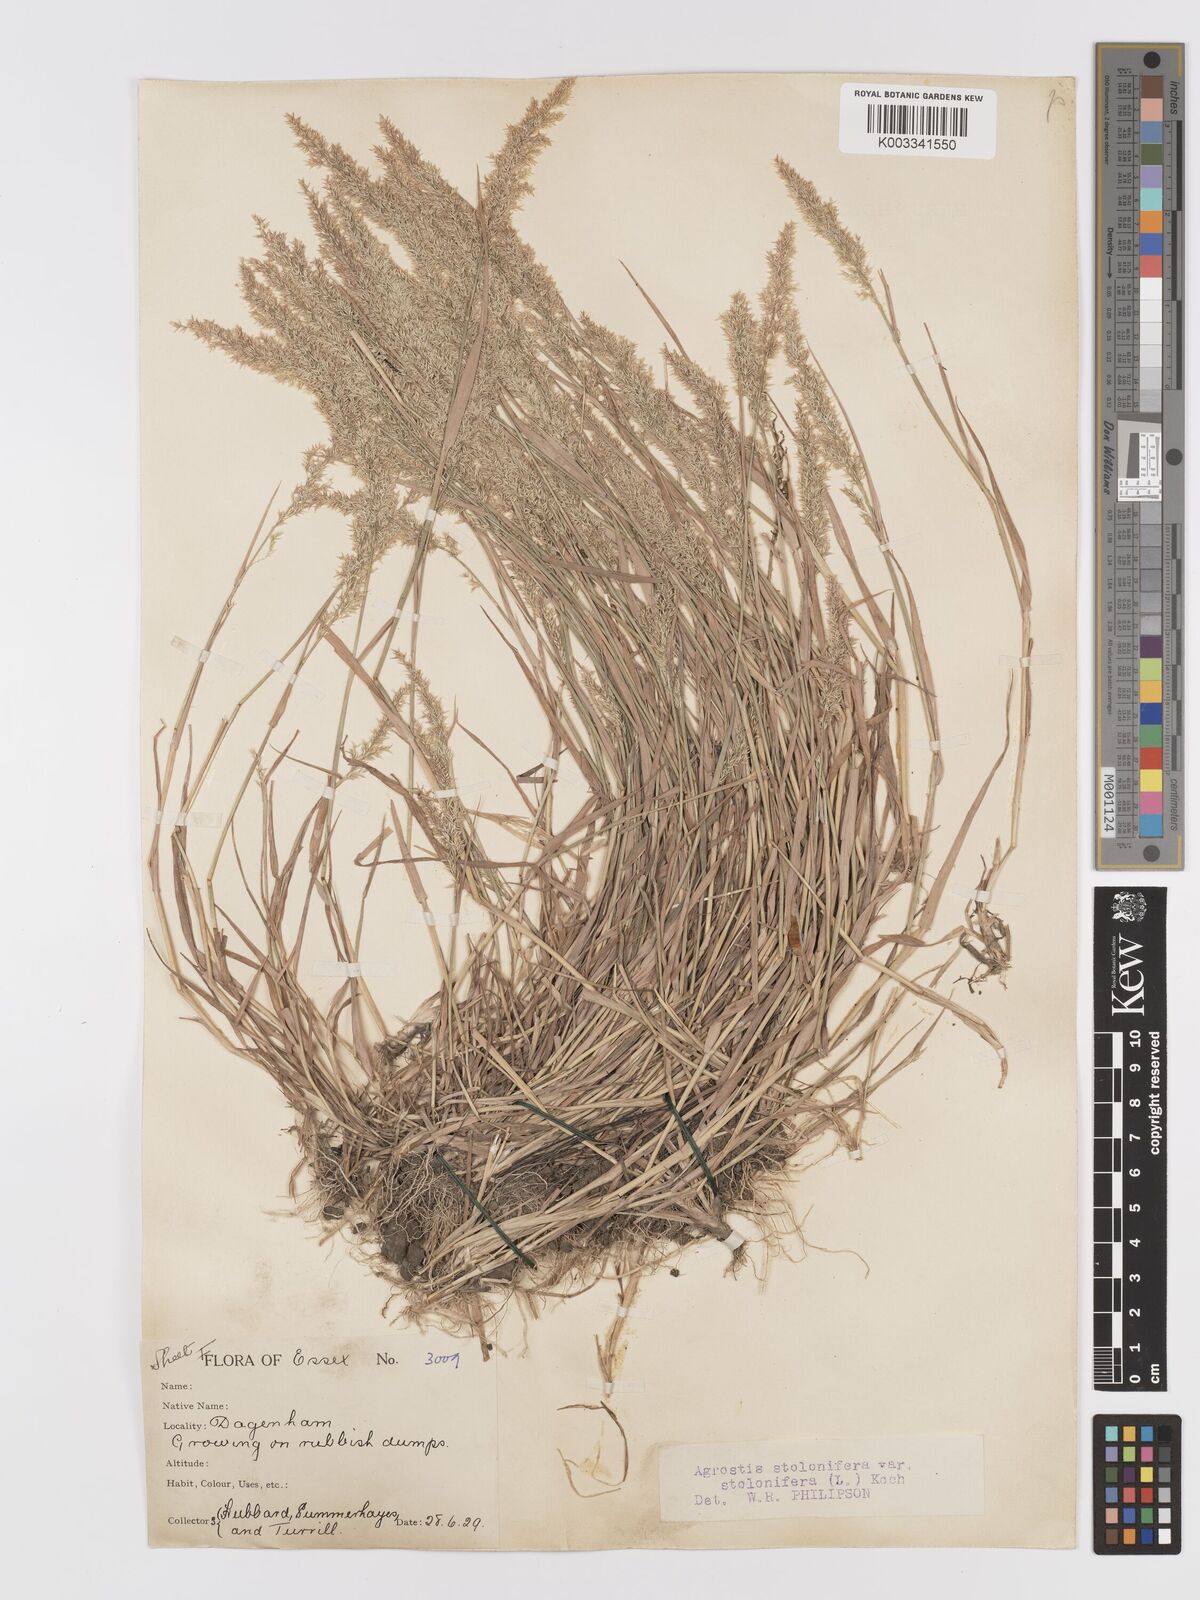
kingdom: Plantae
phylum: Tracheophyta
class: Liliopsida
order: Poales
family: Poaceae
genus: Agrostis
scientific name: Agrostis stolonifera
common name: Creeping bentgrass
